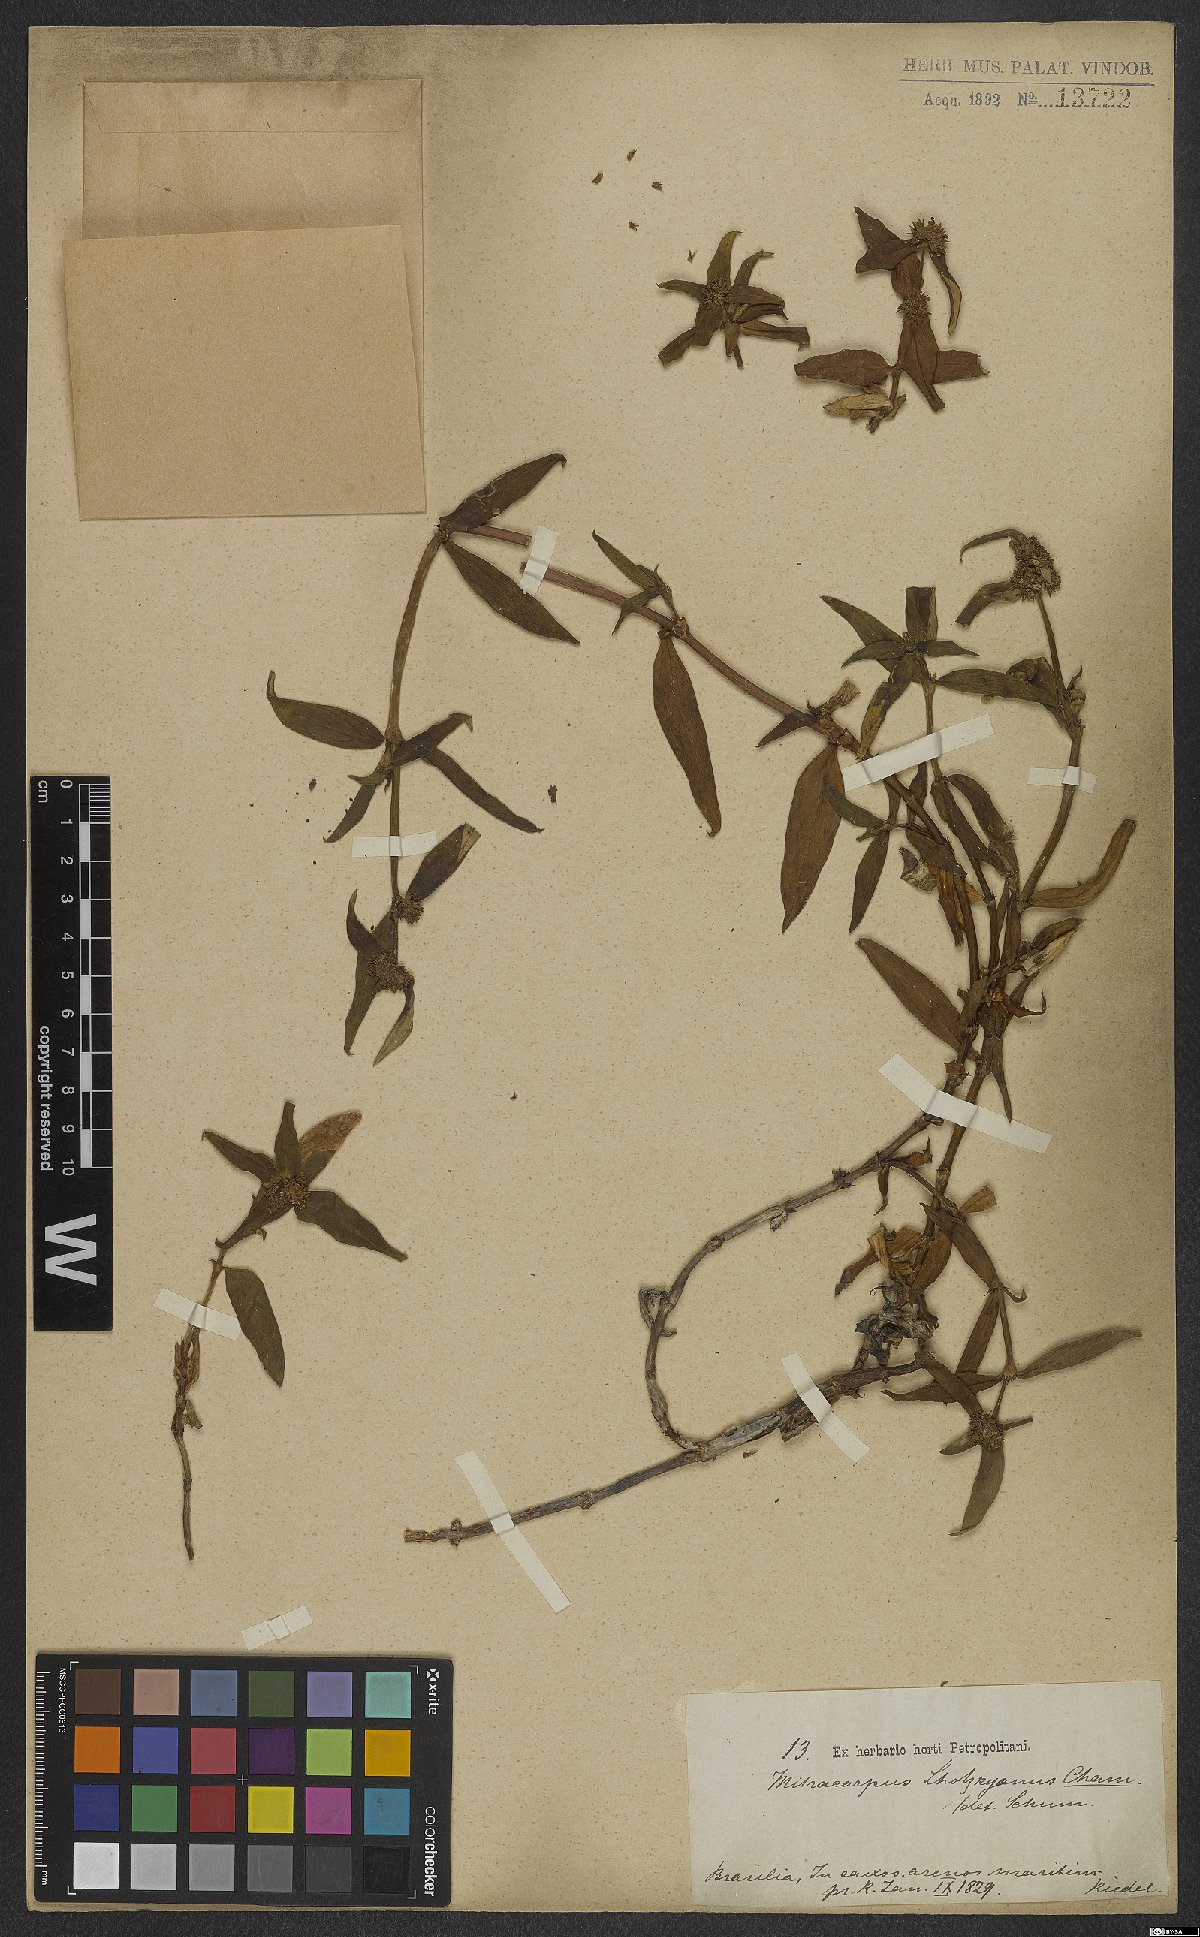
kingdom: Plantae
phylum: Tracheophyta
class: Magnoliopsida
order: Gentianales
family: Rubiaceae
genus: Mitracarpus
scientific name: Mitracarpus lhotzkyanus
